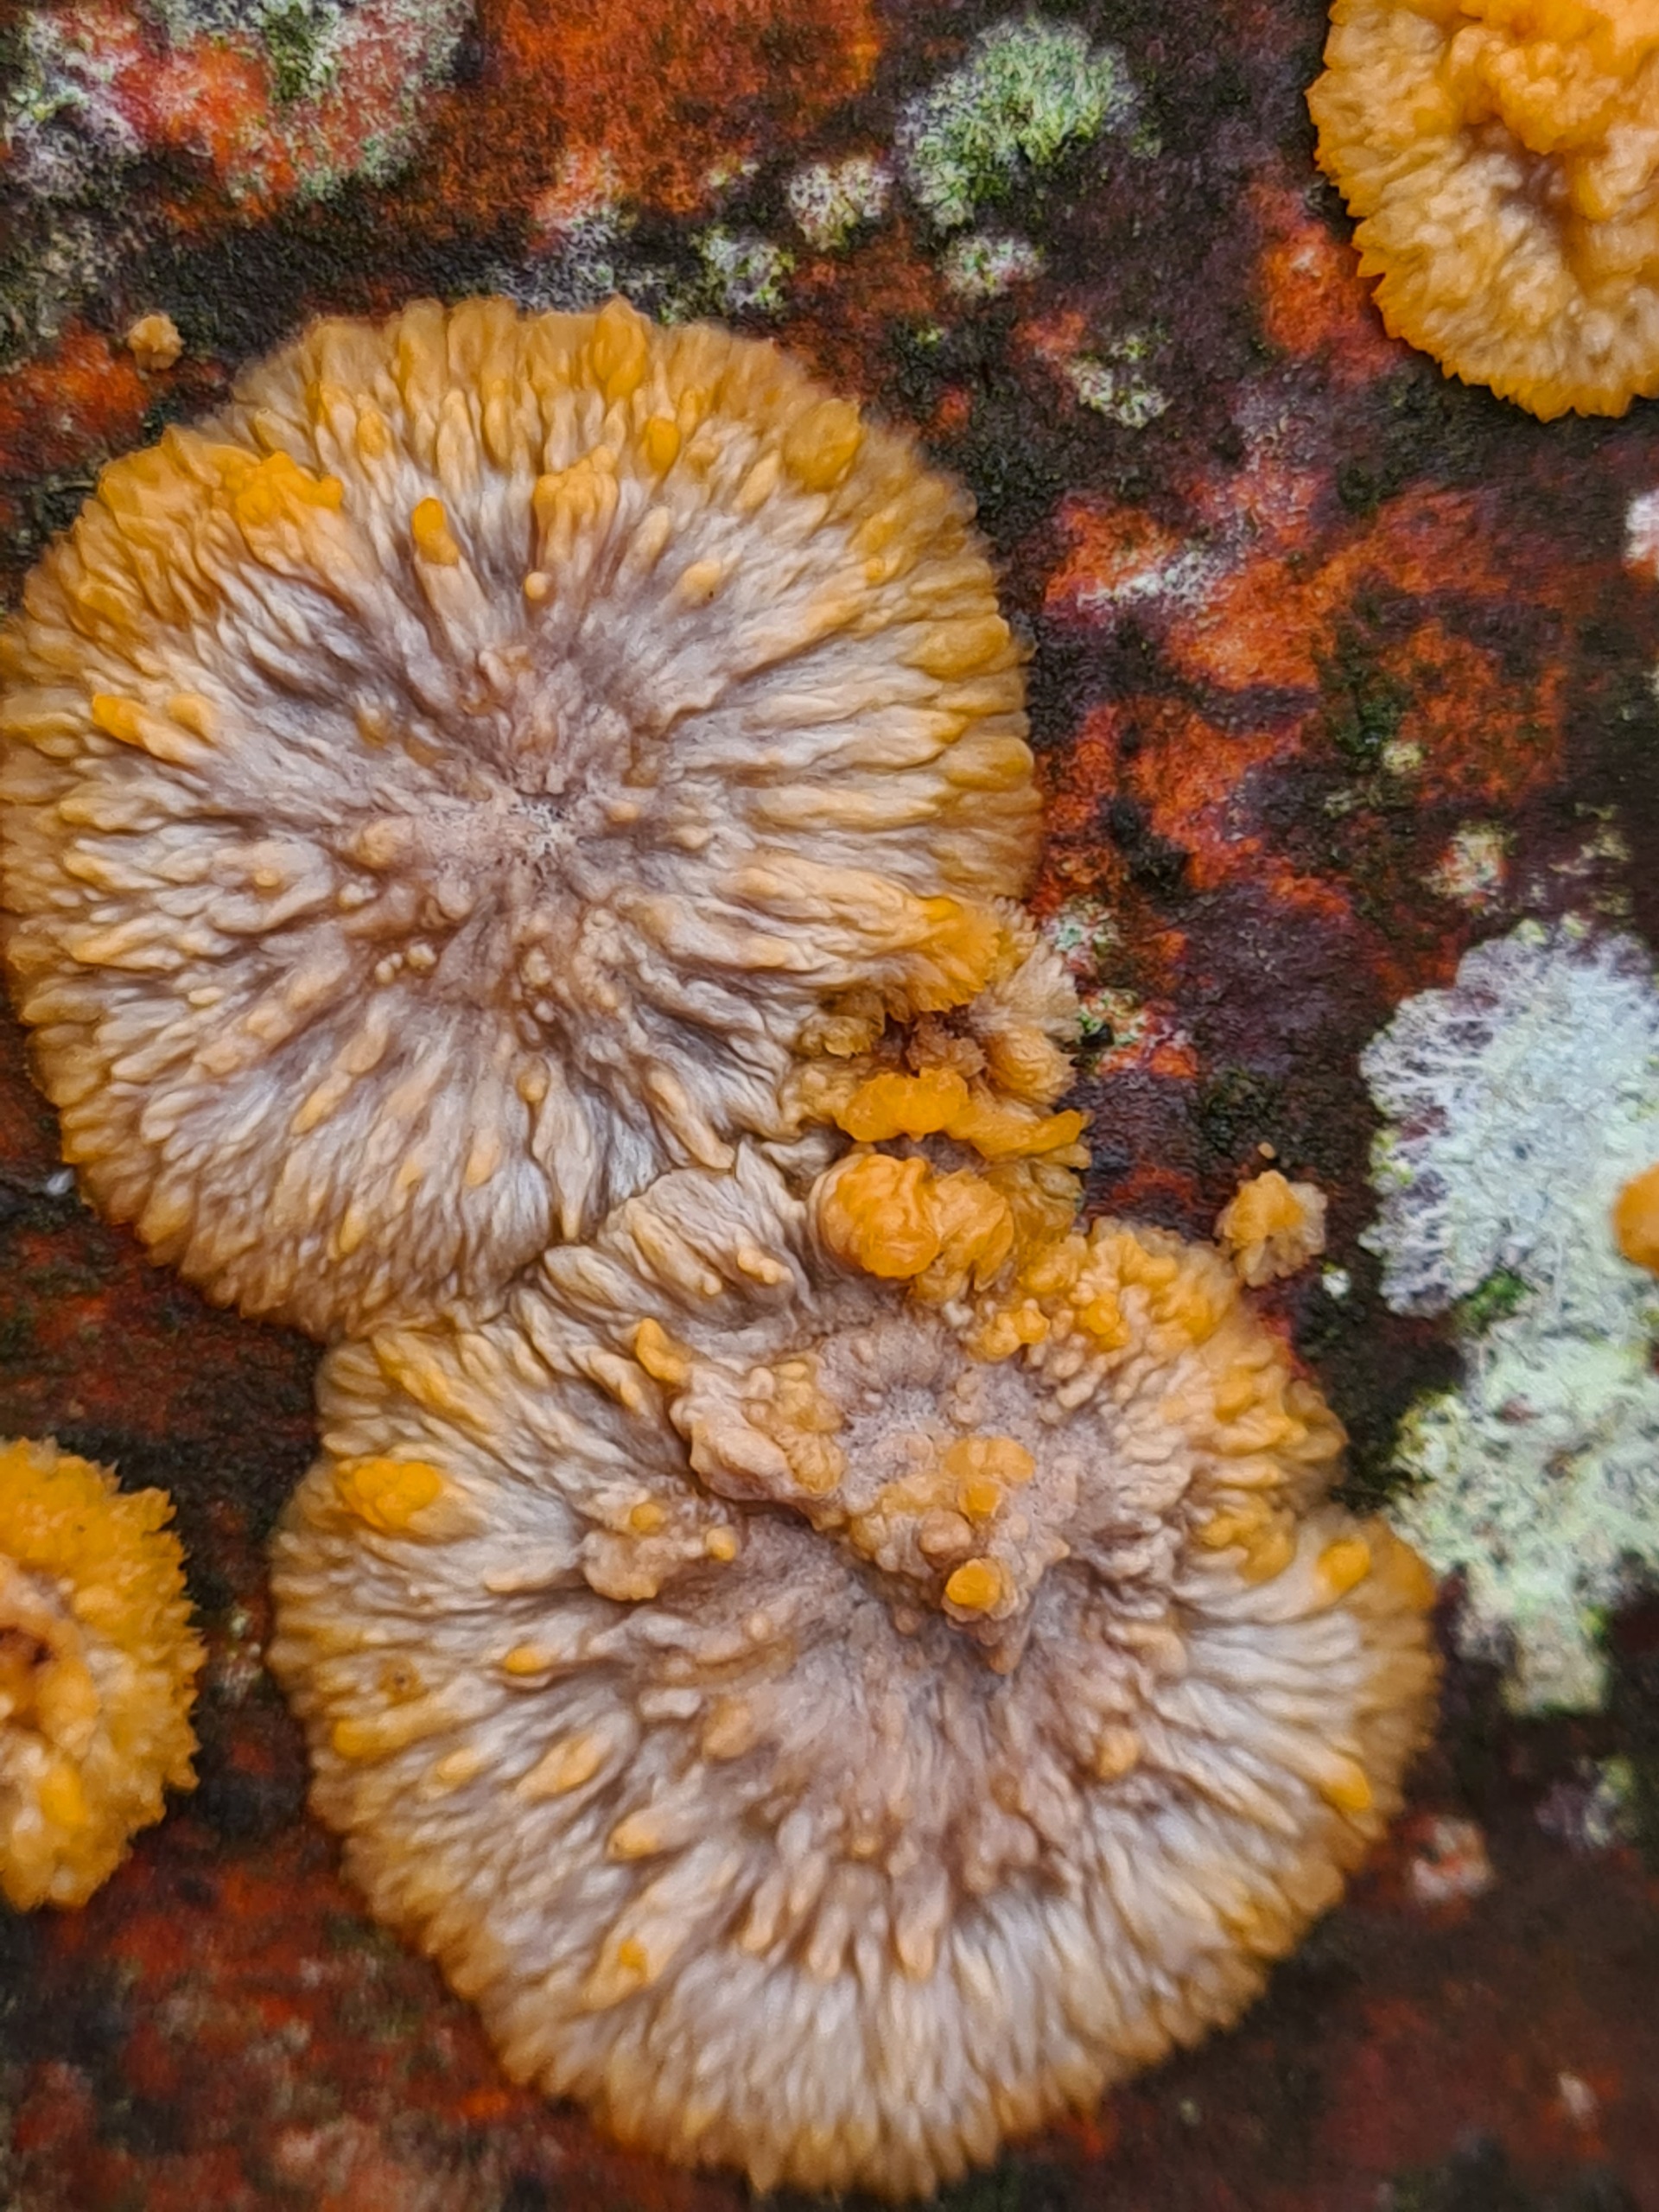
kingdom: Fungi
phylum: Basidiomycota
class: Agaricomycetes
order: Polyporales
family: Meruliaceae
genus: Phlebia
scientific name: Phlebia radiata
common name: Stråle-åresvamp
